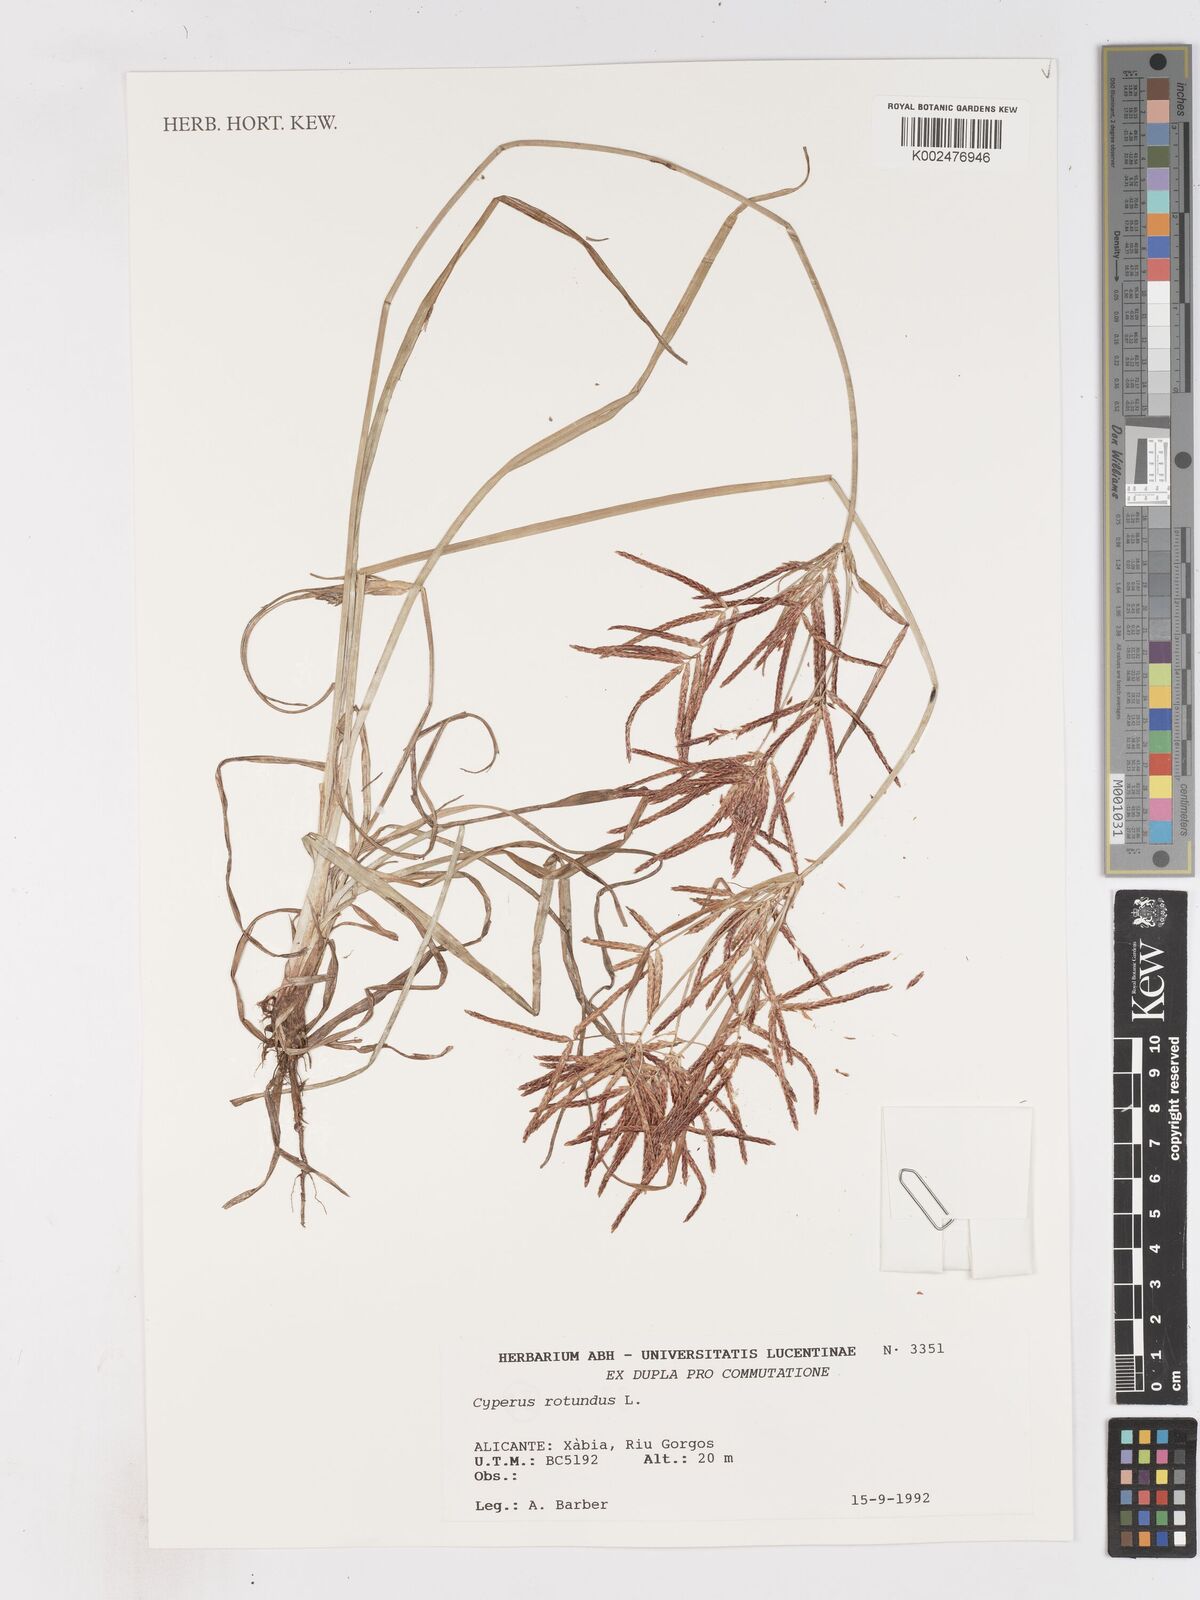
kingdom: Plantae
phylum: Tracheophyta
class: Liliopsida
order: Poales
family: Cyperaceae
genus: Cyperus
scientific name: Cyperus rotundus
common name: Nutgrass
